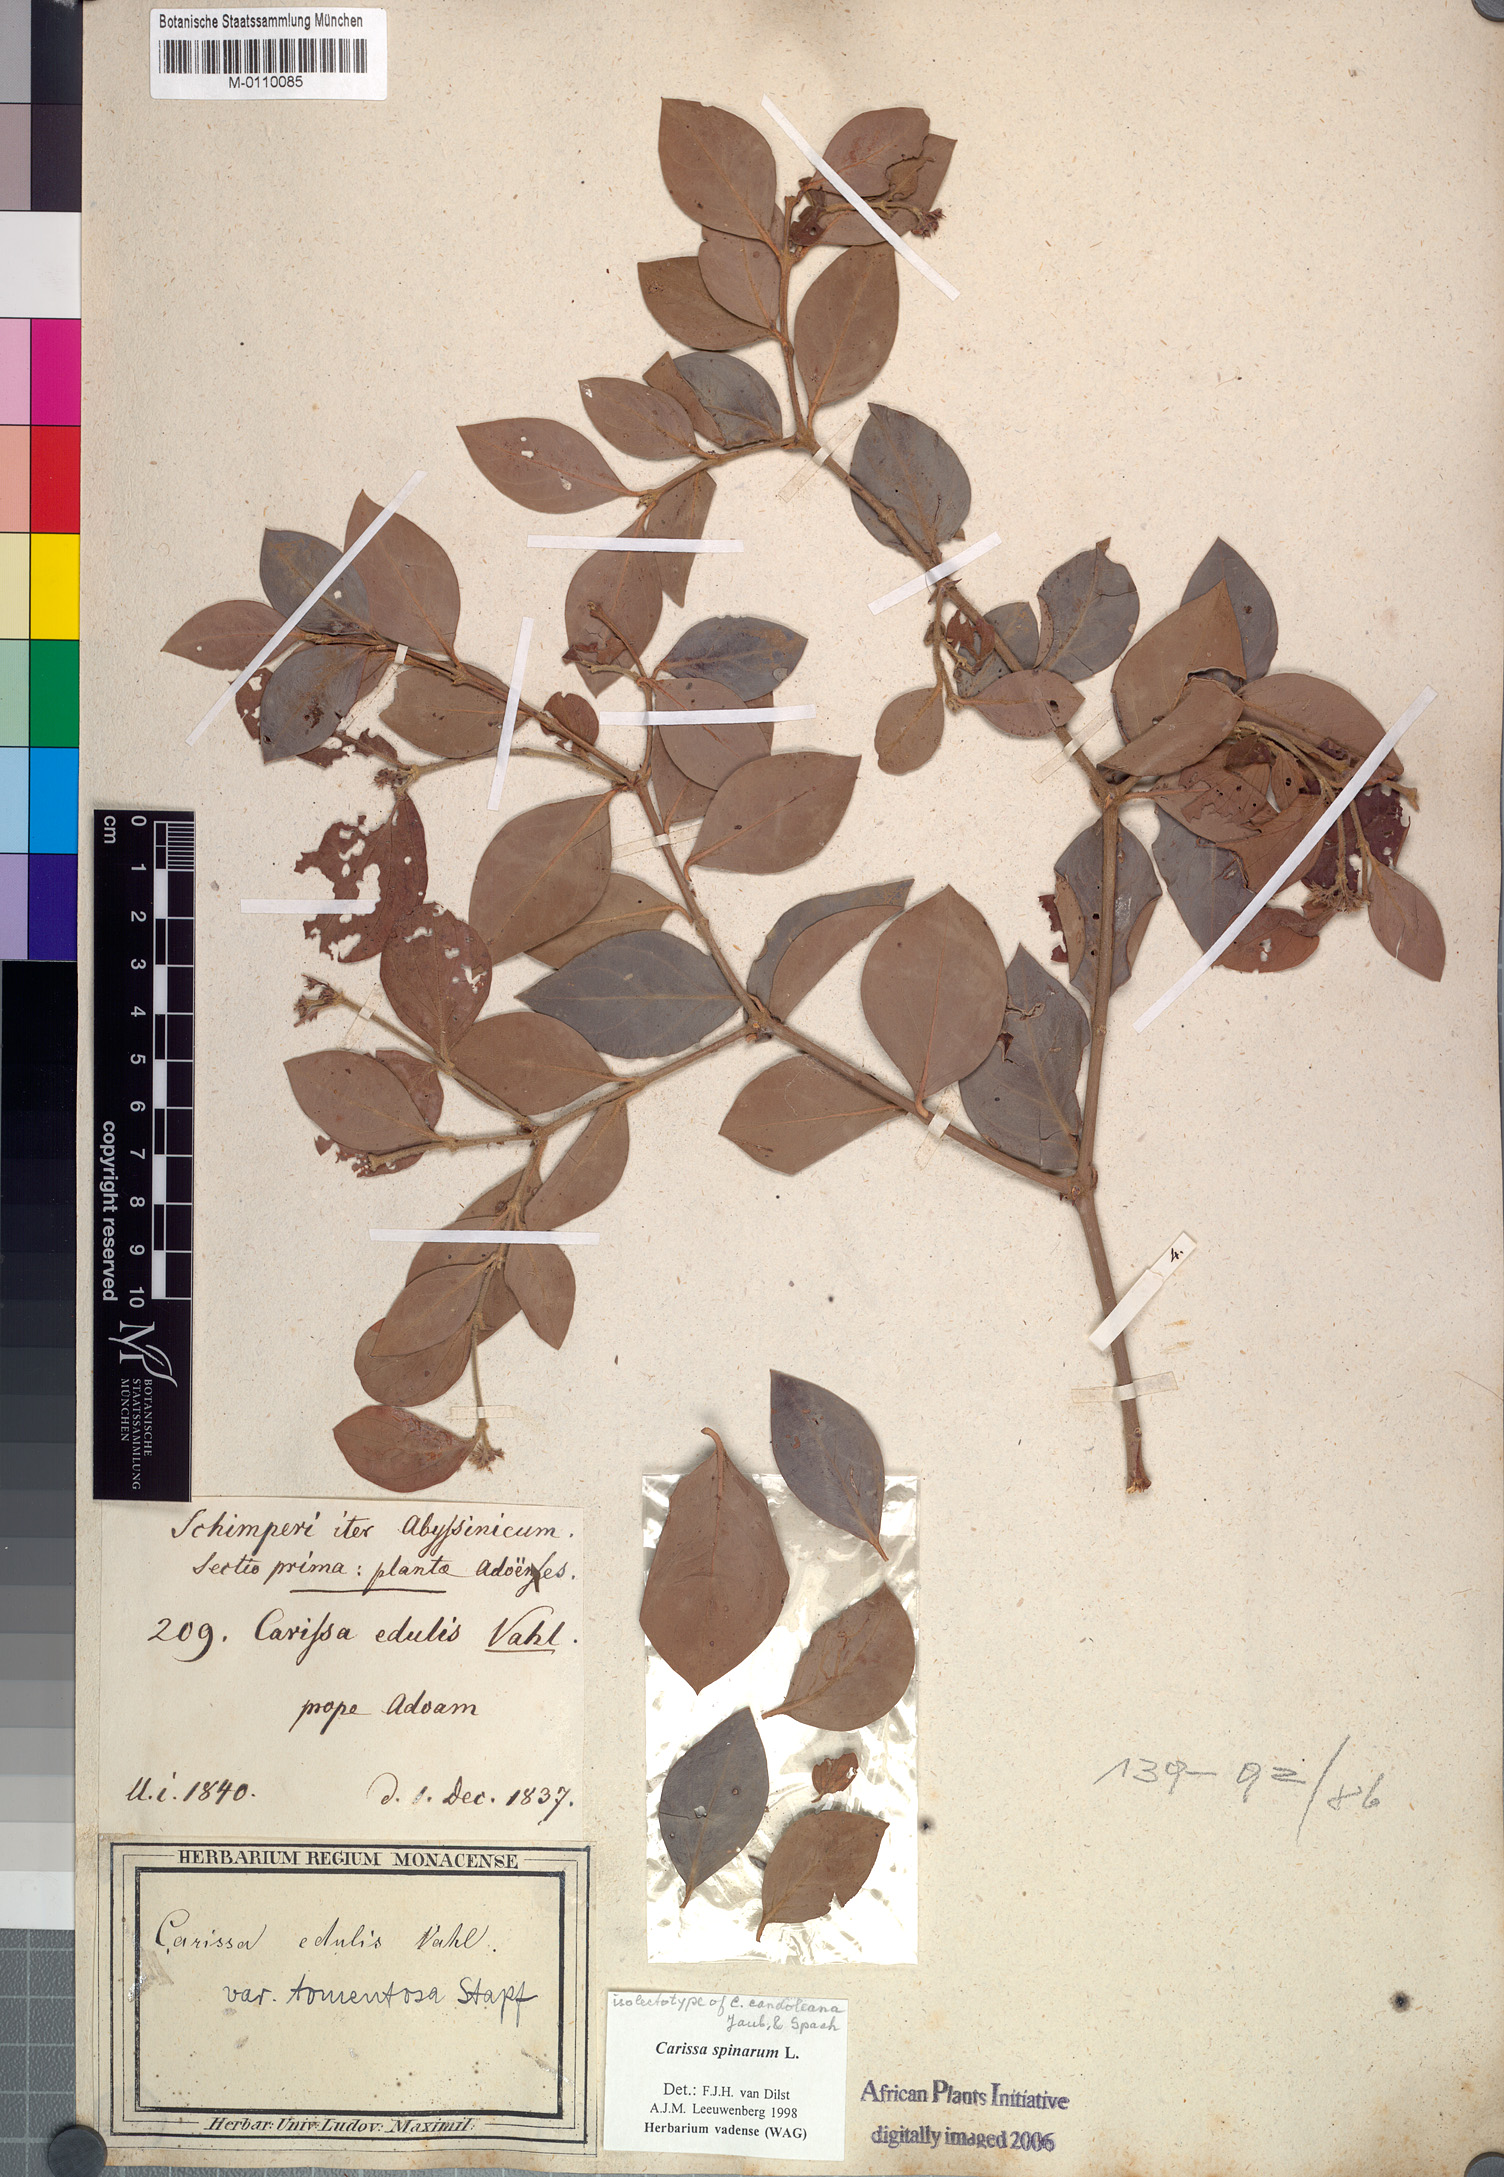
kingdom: Plantae
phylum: Tracheophyta
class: Magnoliopsida
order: Gentianales
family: Apocynaceae
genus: Carissa
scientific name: Carissa spinarum
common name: Egyptian carissa
